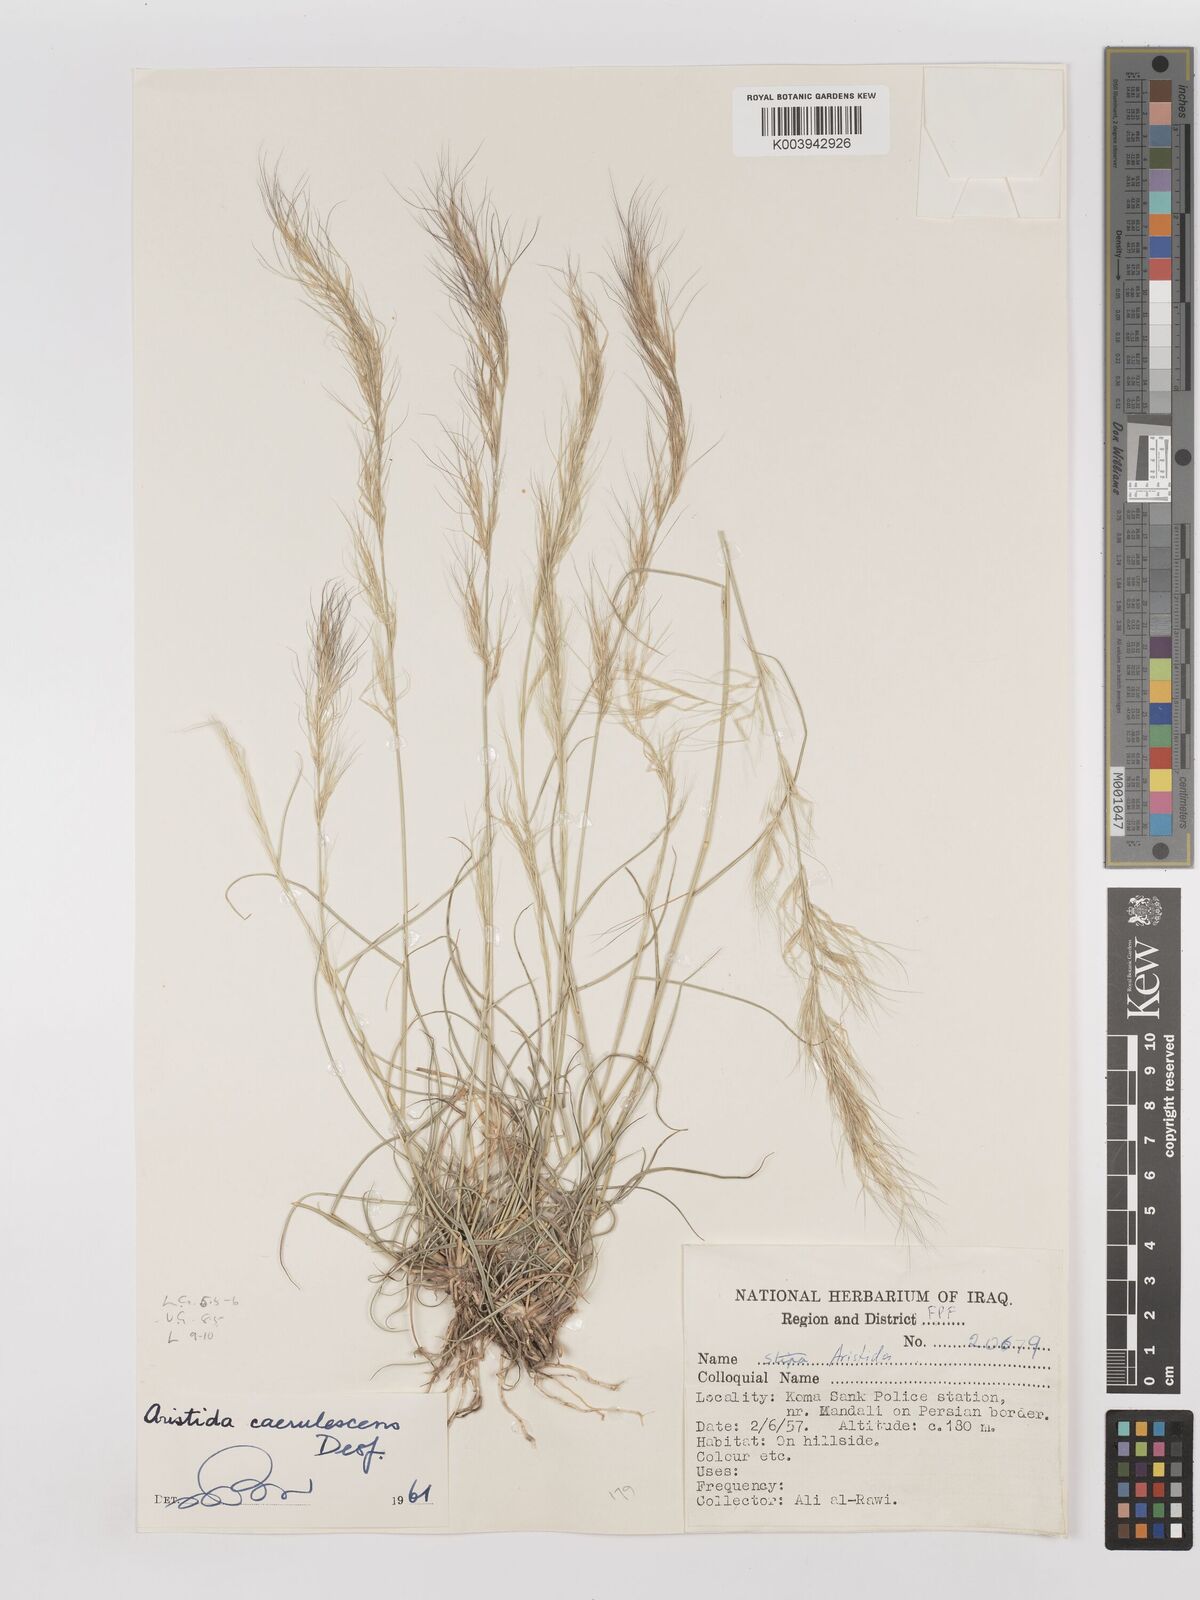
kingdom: Plantae
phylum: Tracheophyta
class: Liliopsida
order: Poales
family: Poaceae
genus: Aristida
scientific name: Aristida adscensionis
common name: Sixweeks threeawn
